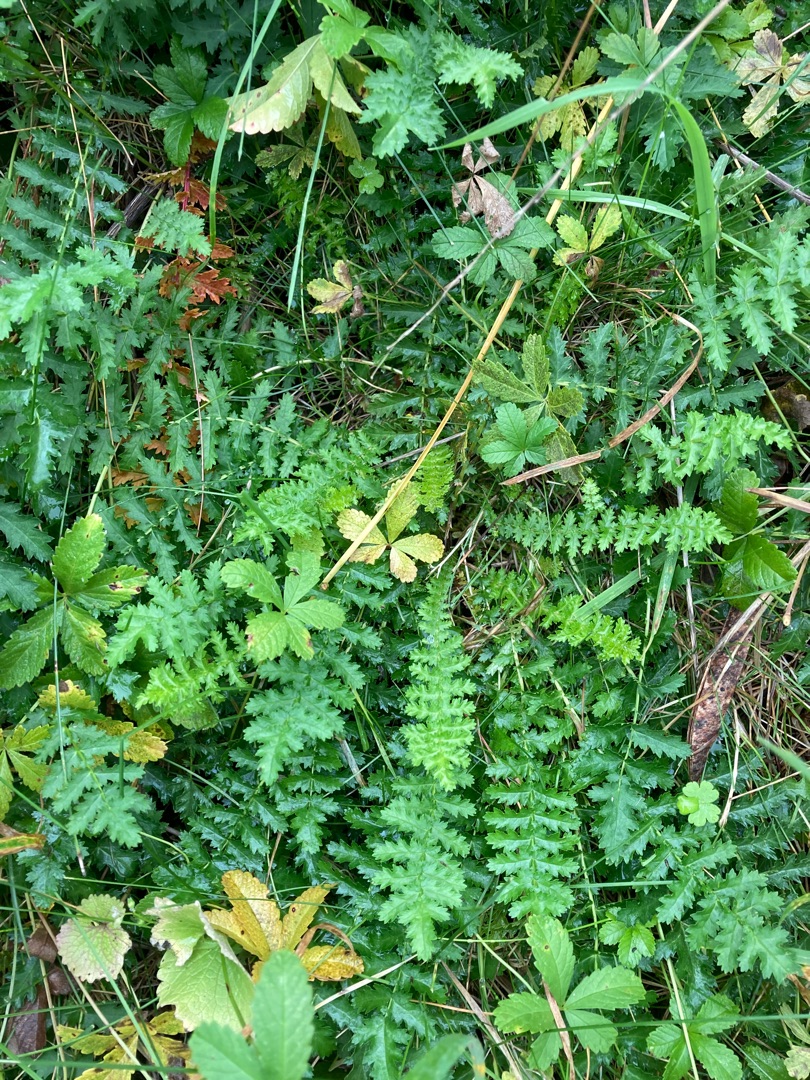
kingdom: Plantae
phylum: Tracheophyta
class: Magnoliopsida
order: Rosales
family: Rosaceae
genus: Filipendula
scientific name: Filipendula vulgaris
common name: Knoldet mjødurt
